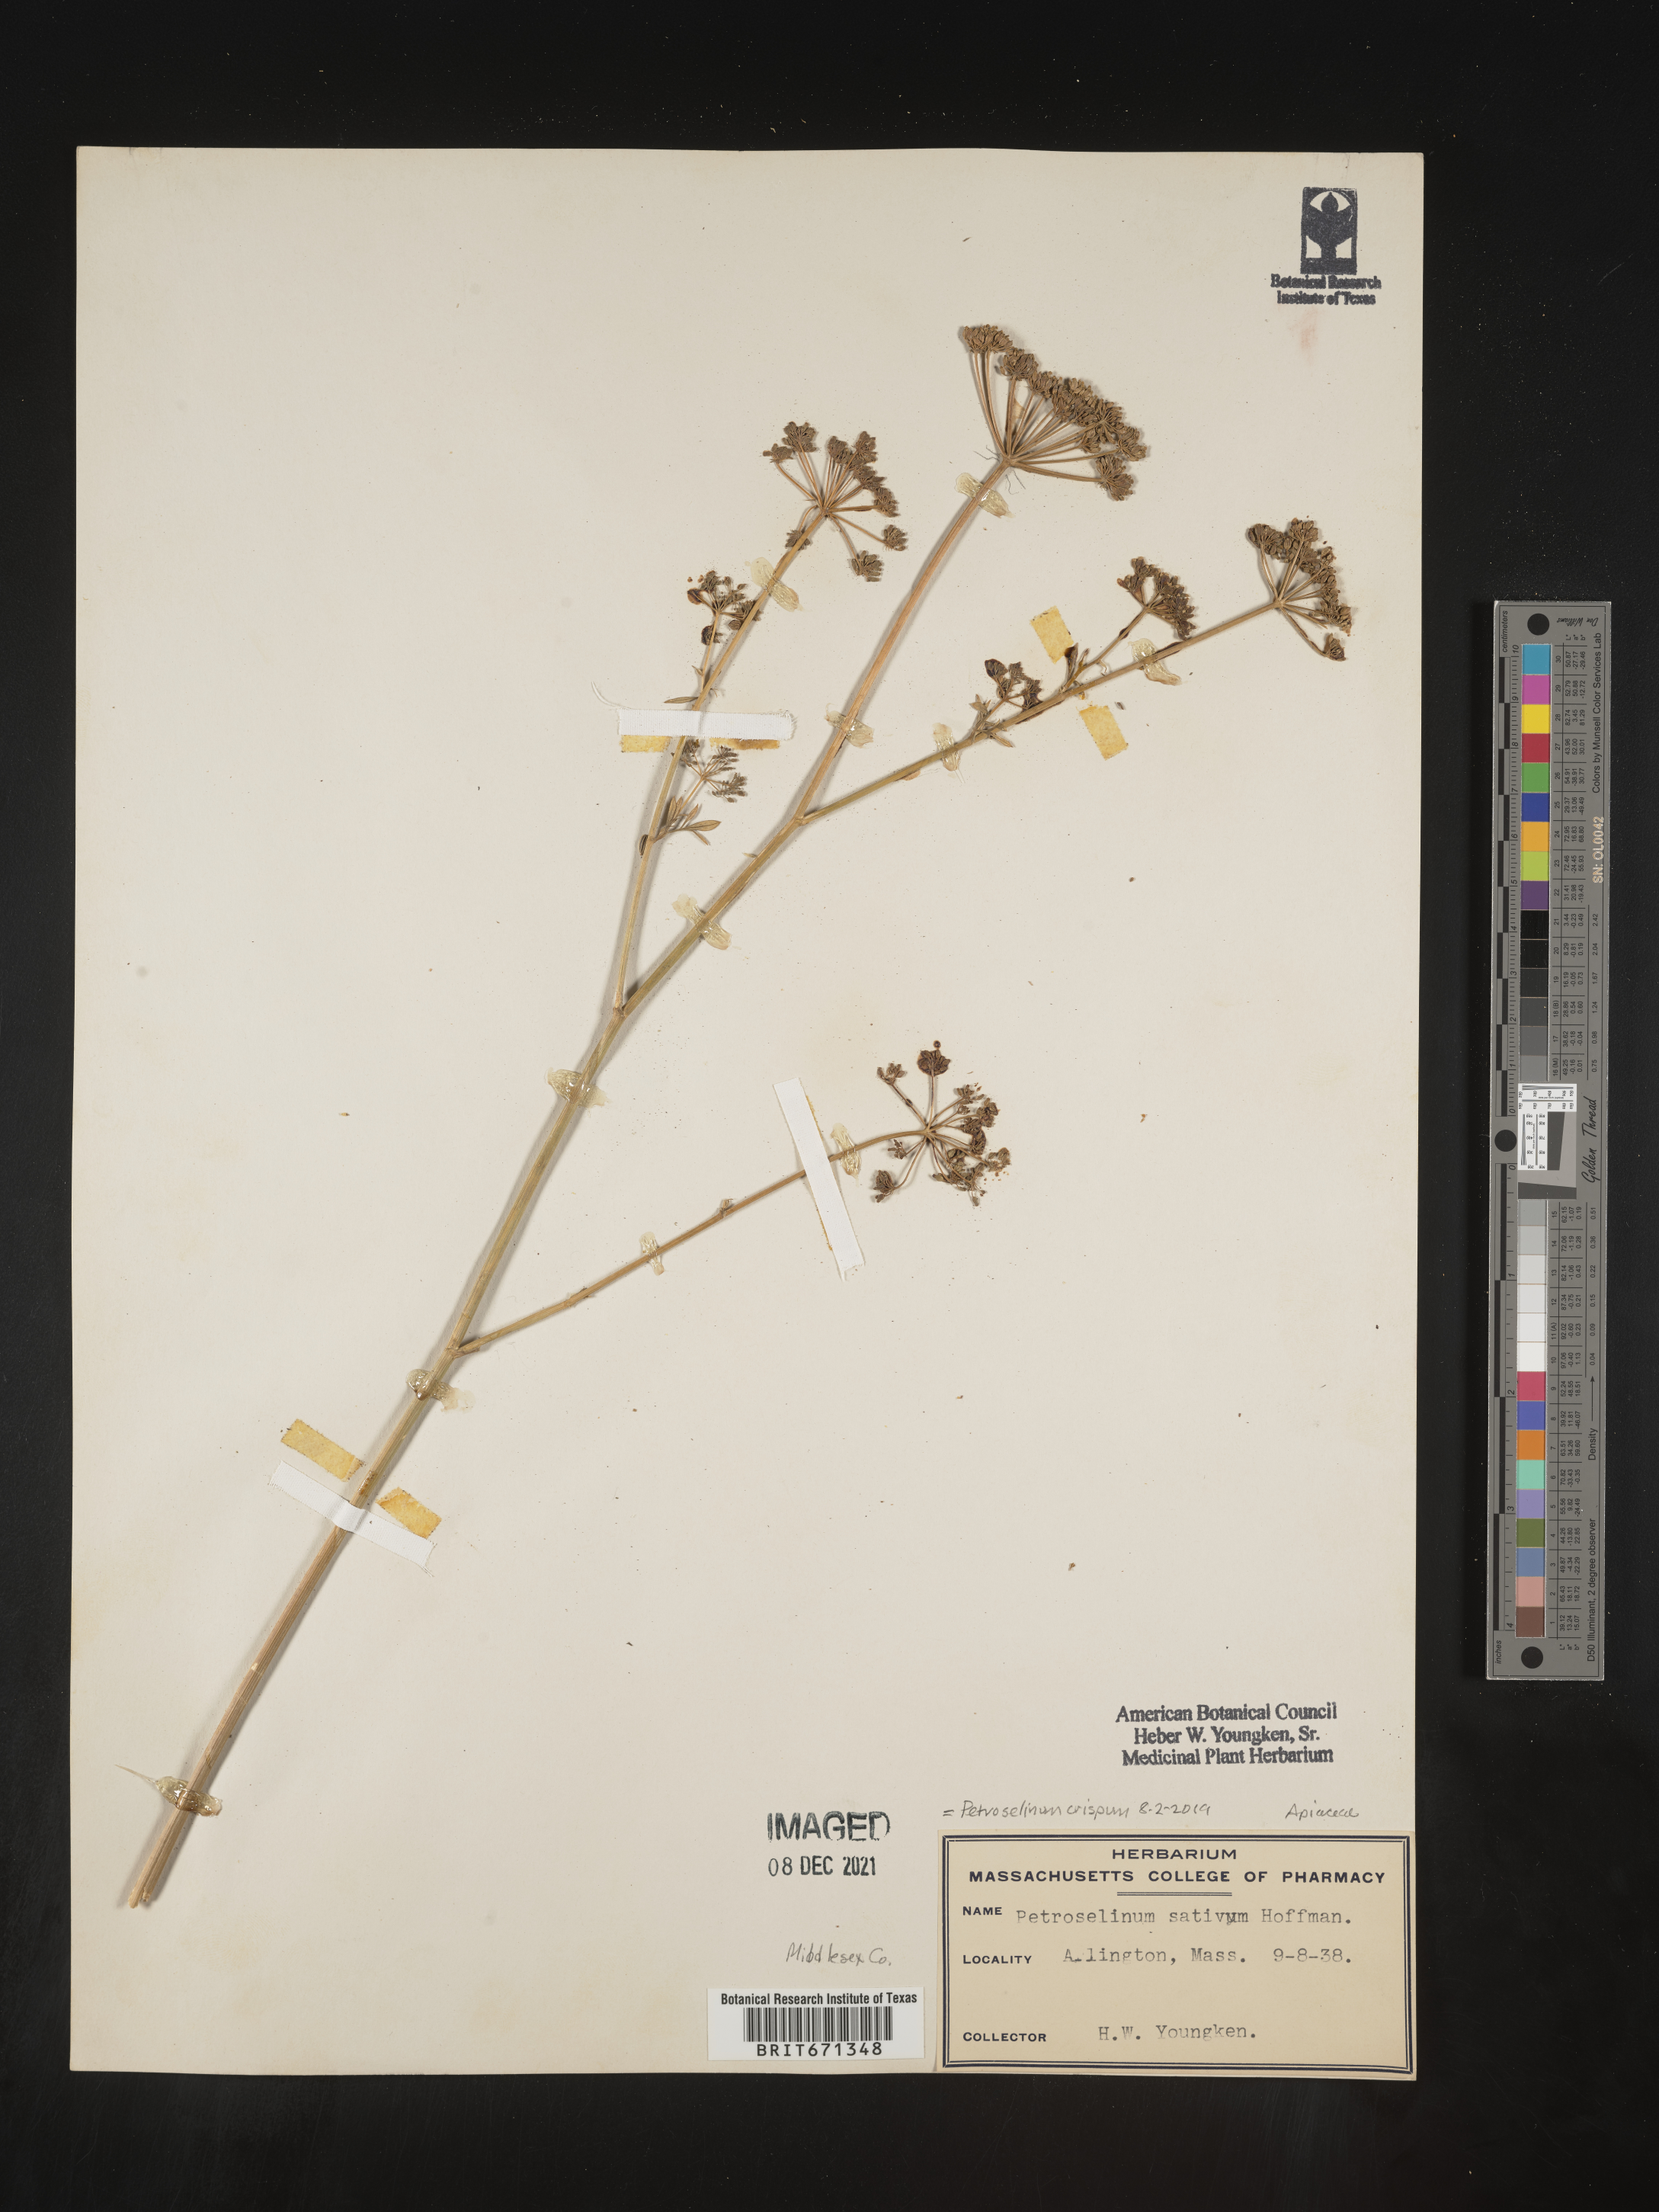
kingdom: Plantae
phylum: Tracheophyta
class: Magnoliopsida
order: Apiales
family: Apiaceae
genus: Petroselinum
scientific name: Petroselinum
